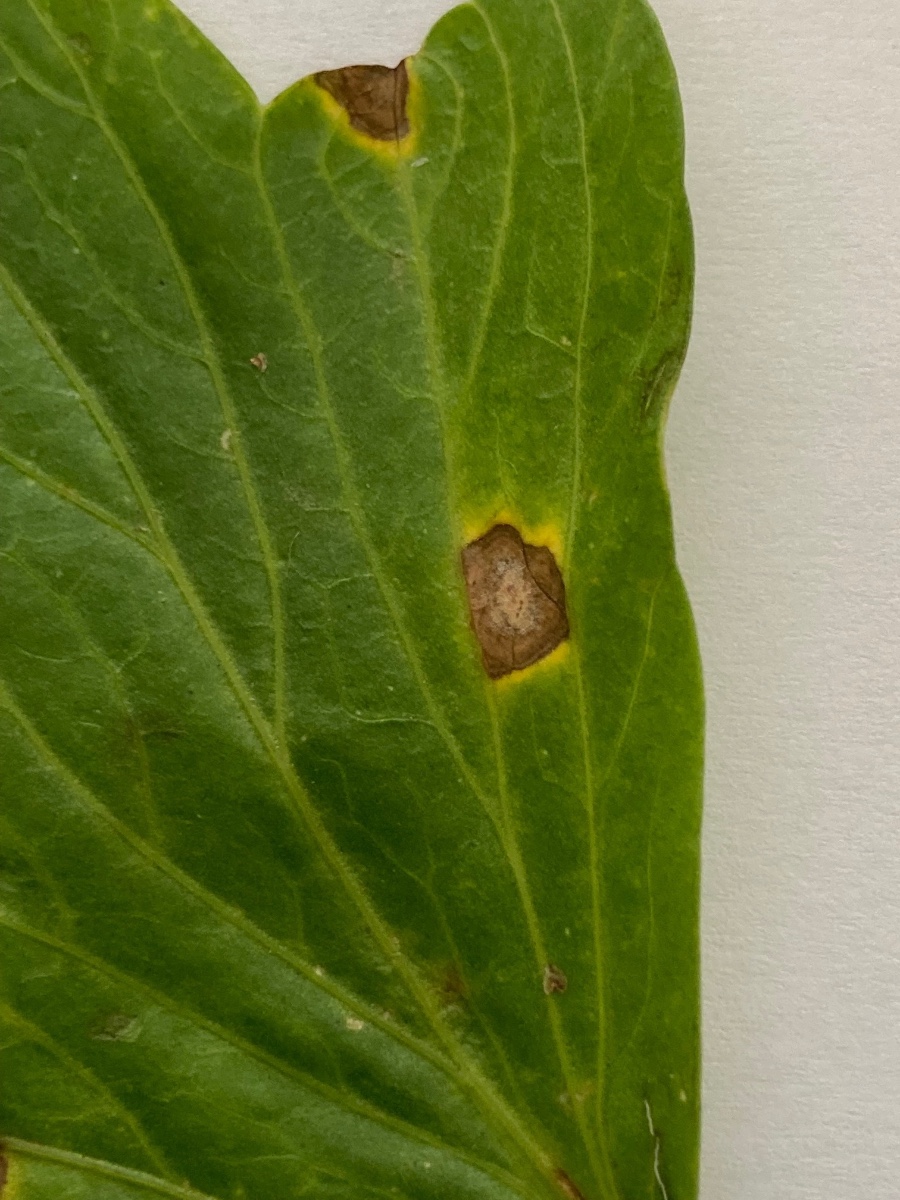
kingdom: Fungi
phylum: Ascomycota
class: Dothideomycetes
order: Mycosphaerellales
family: Mycosphaerellaceae
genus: Ramularia
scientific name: Ramularia heraclei
